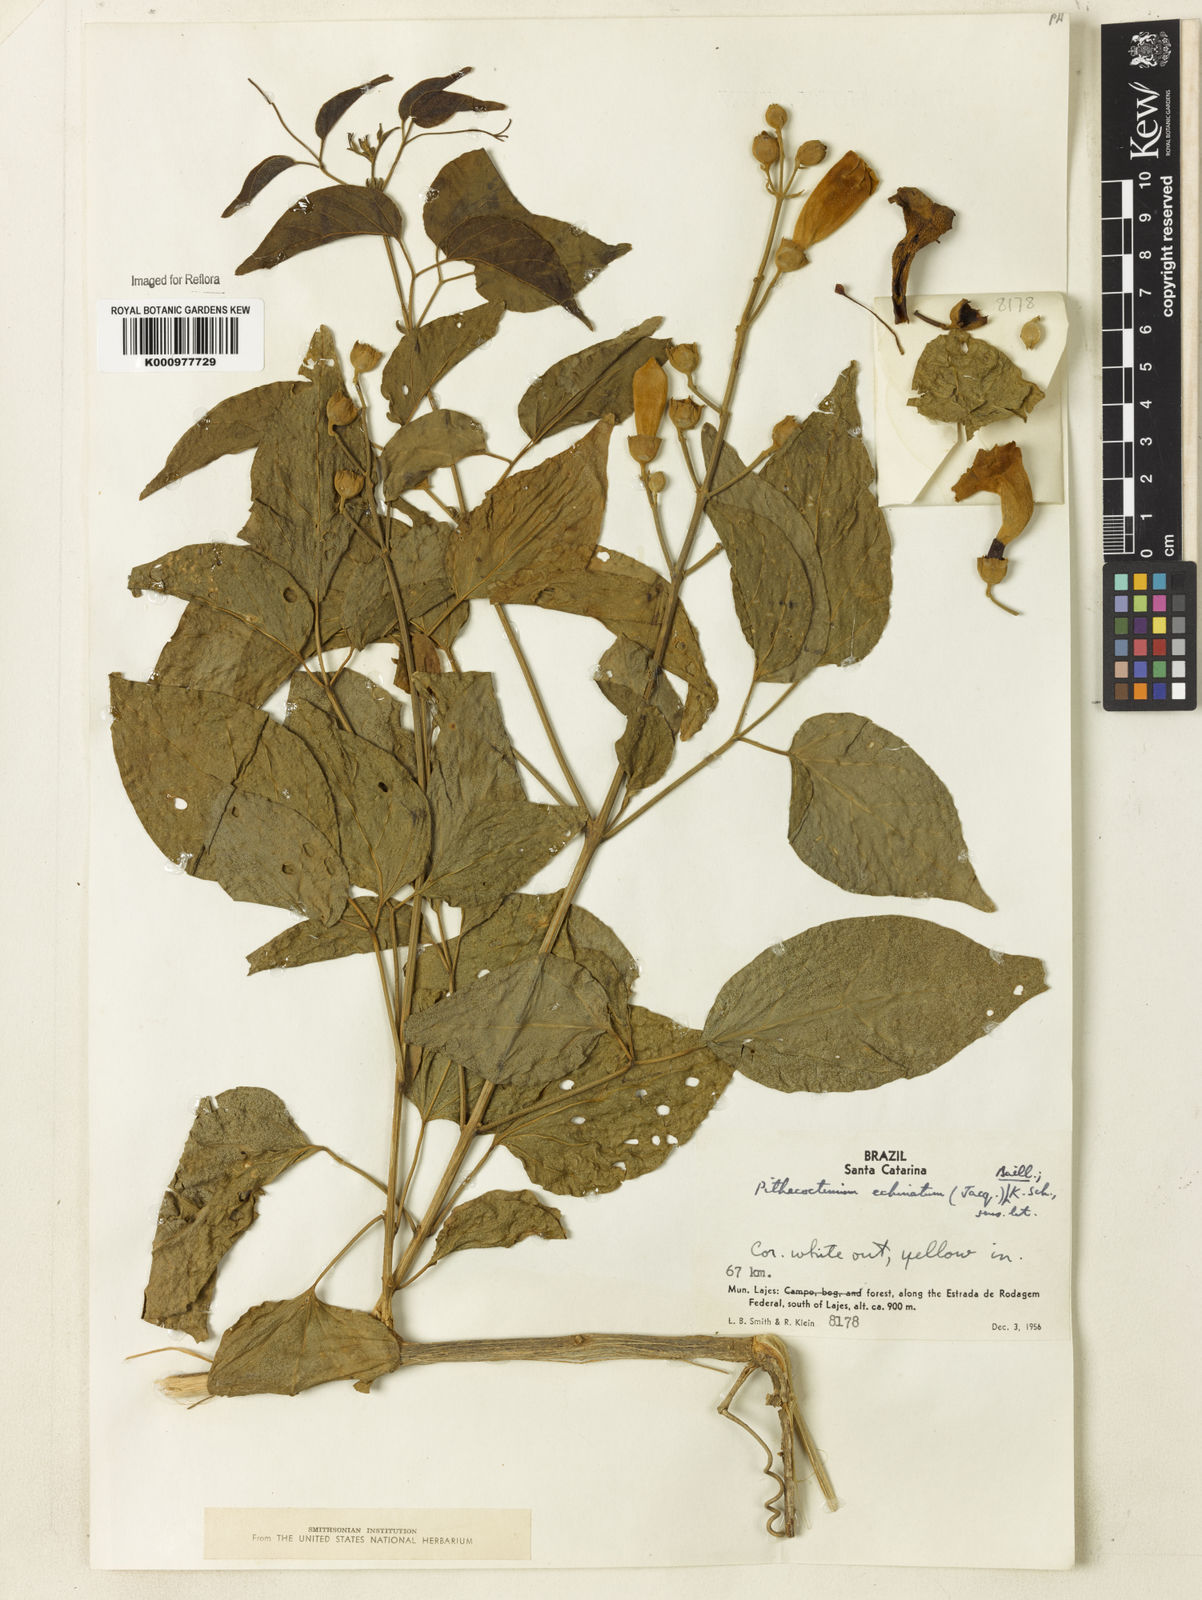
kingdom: Plantae
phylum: Tracheophyta
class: Magnoliopsida
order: Lamiales
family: Bignoniaceae
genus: Amphilophium
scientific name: Amphilophium crucigerum
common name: Monkey comb
